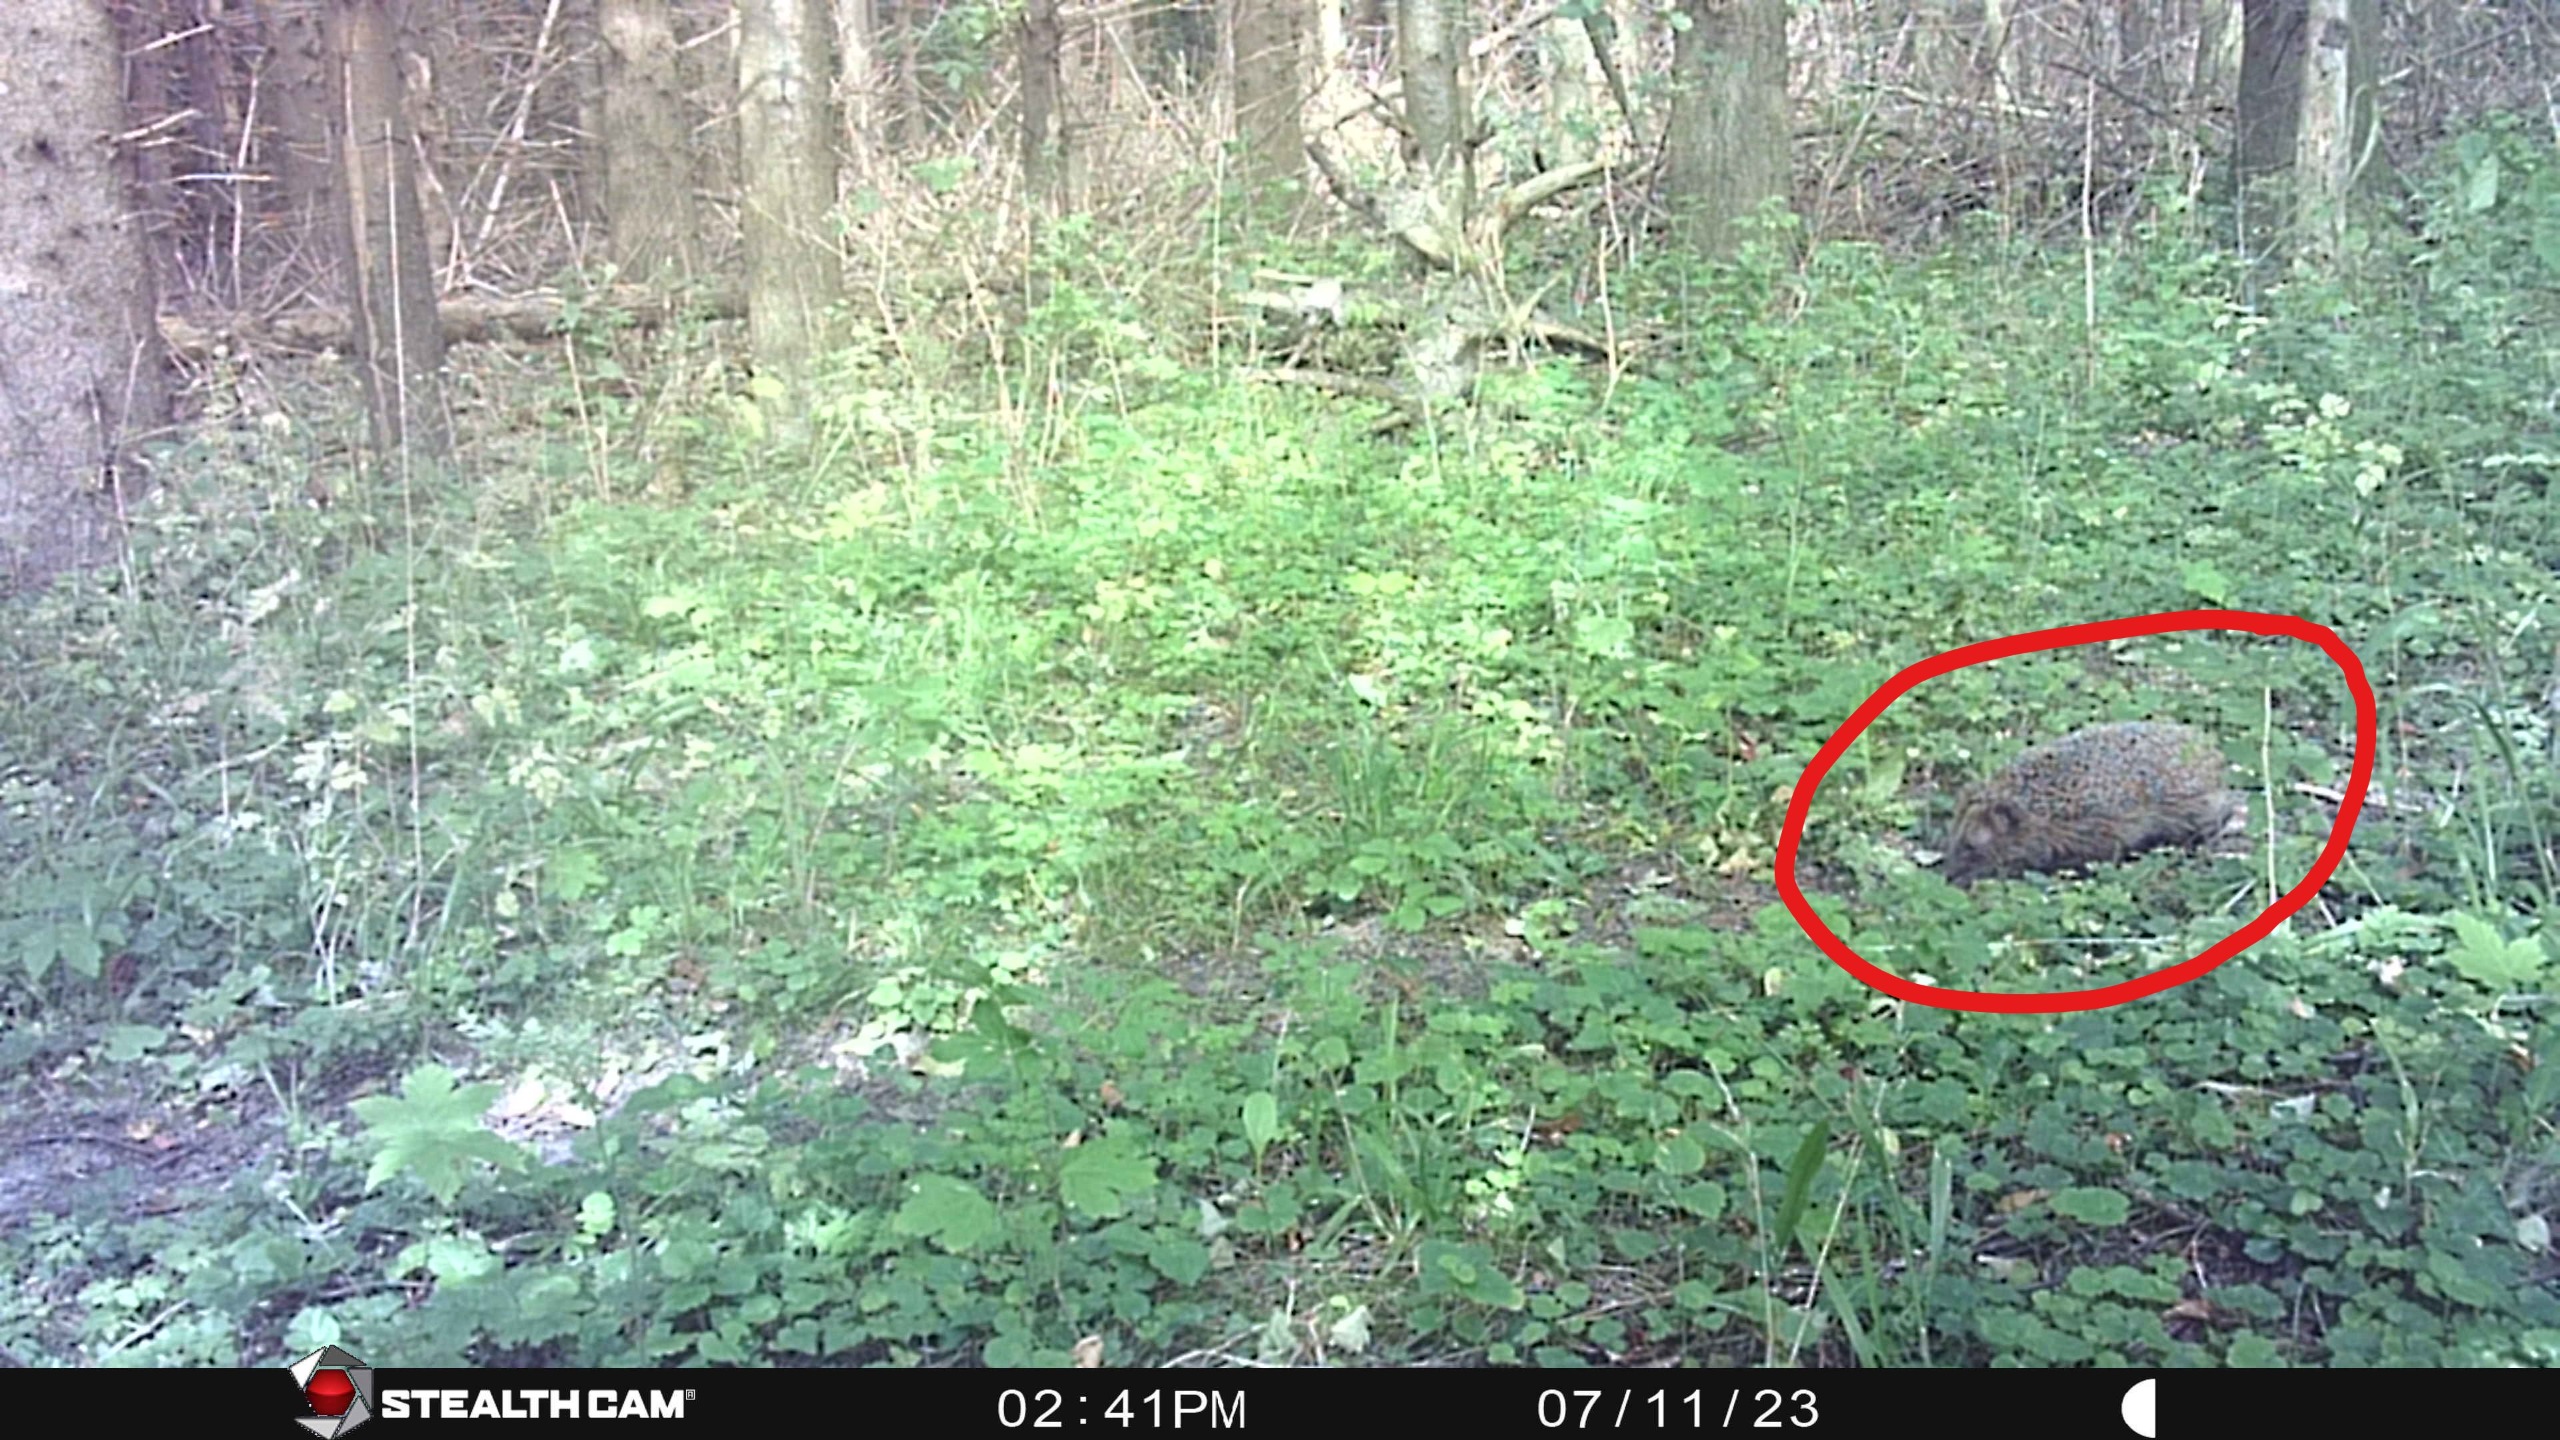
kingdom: Animalia
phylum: Chordata
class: Mammalia
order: Erinaceomorpha
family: Erinaceidae
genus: Erinaceus
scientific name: Erinaceus europaeus
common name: Pindsvin
